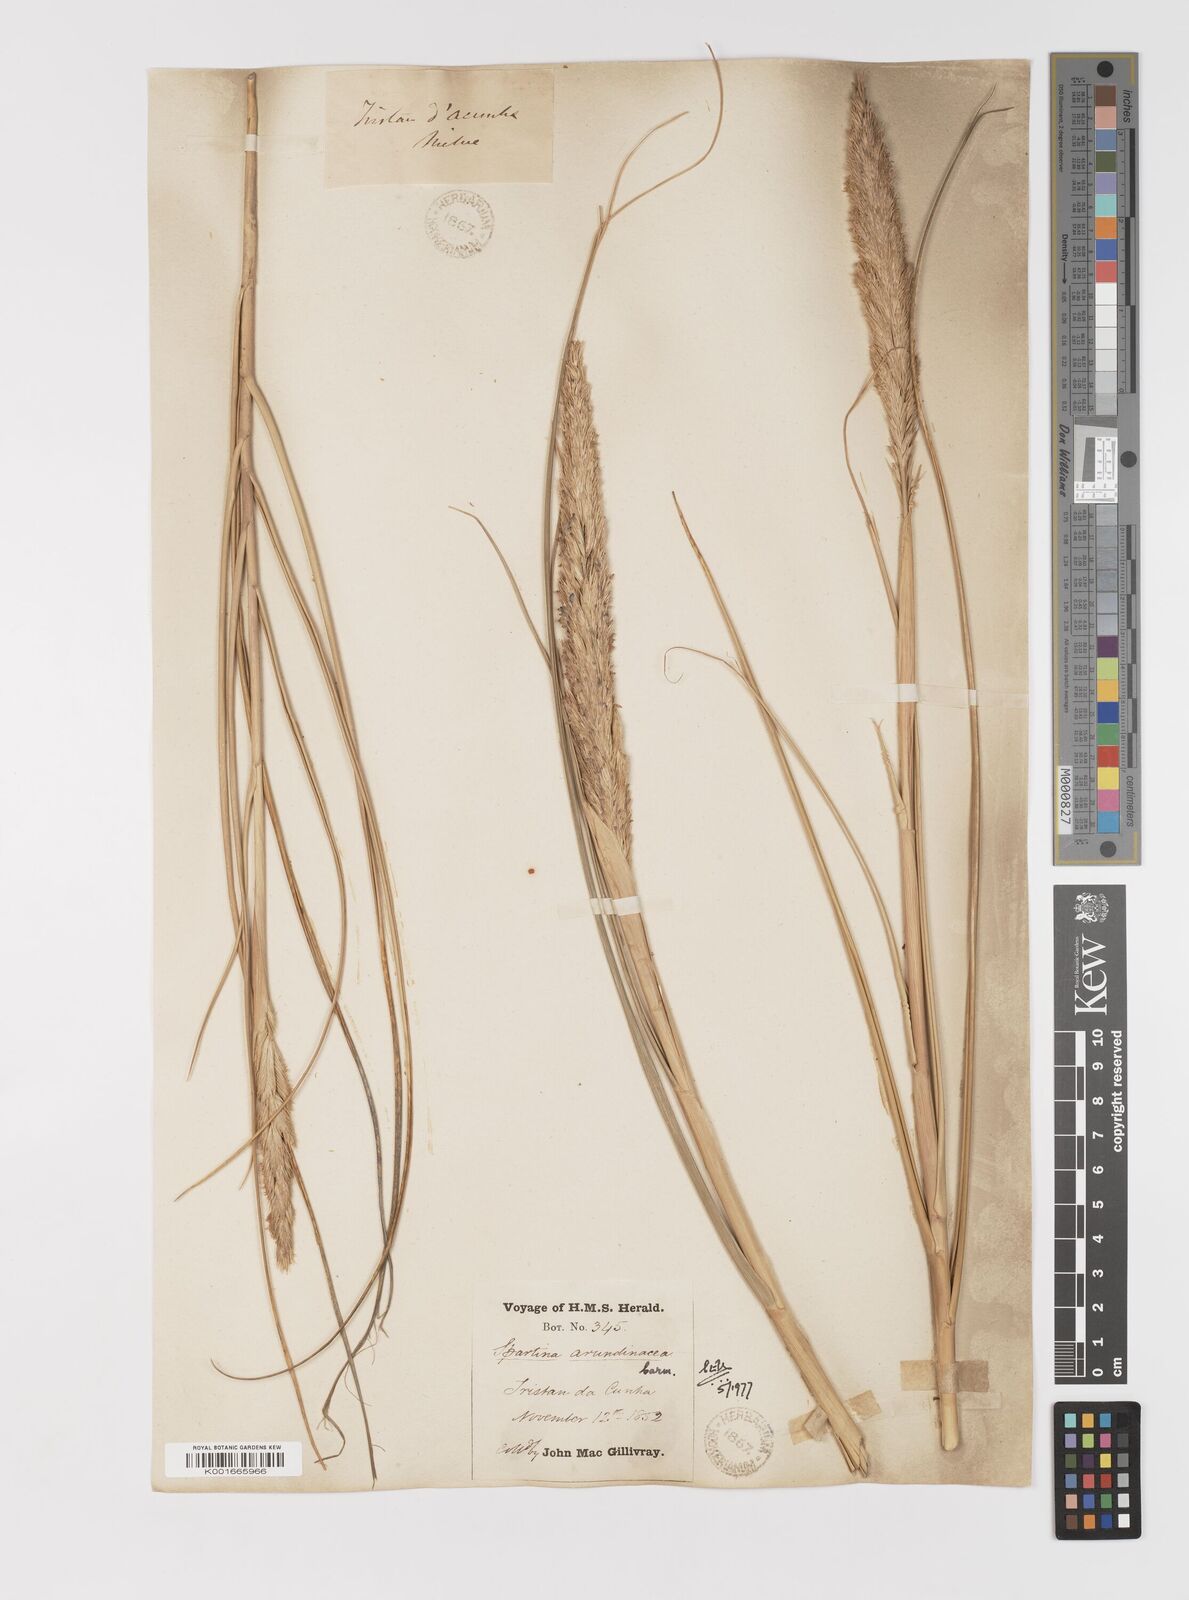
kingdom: Plantae
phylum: Tracheophyta
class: Liliopsida
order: Poales
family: Poaceae
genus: Sporobolus
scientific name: Sporobolus mobberleyanus
